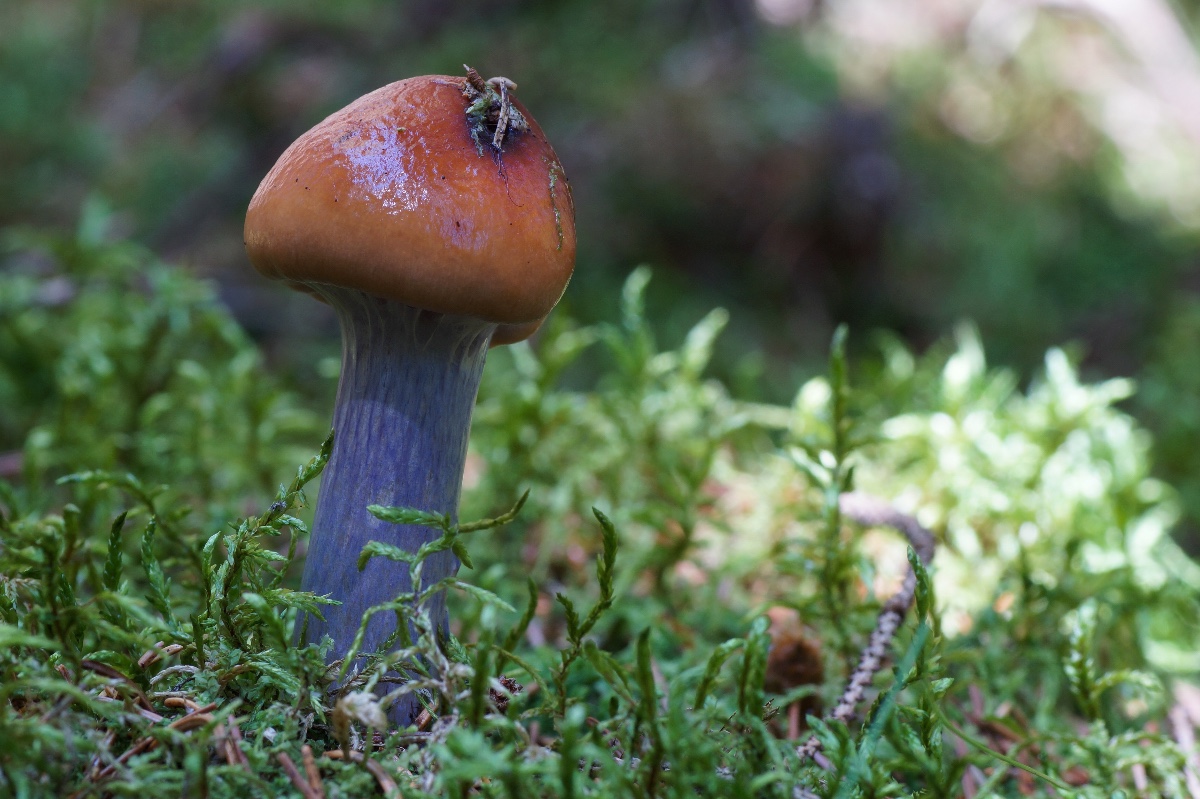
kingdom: Fungi
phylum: Basidiomycota
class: Agaricomycetes
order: Agaricales
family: Cortinariaceae
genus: Cortinarius
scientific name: Cortinarius collinitus
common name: spættet slørhat
